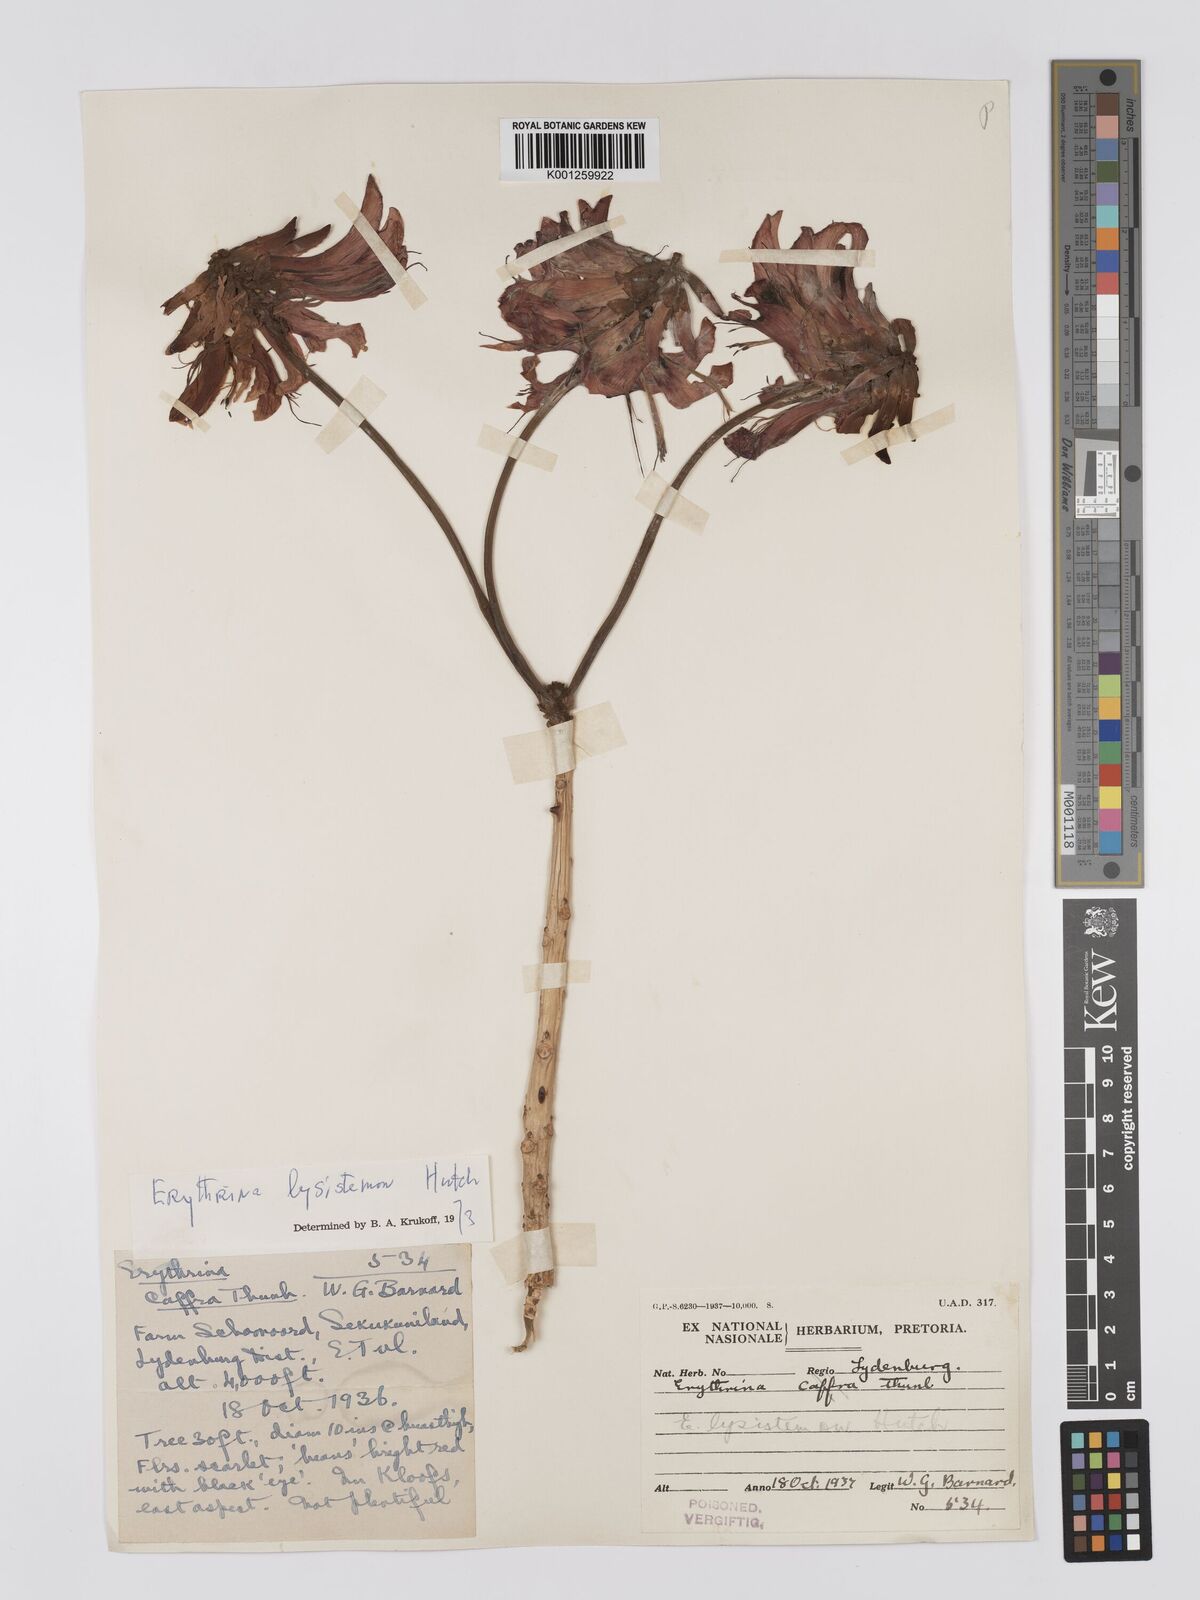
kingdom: Plantae
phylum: Tracheophyta
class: Magnoliopsida
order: Fabales
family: Fabaceae
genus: Erythrina
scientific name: Erythrina lysistemon
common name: Common coral tree
